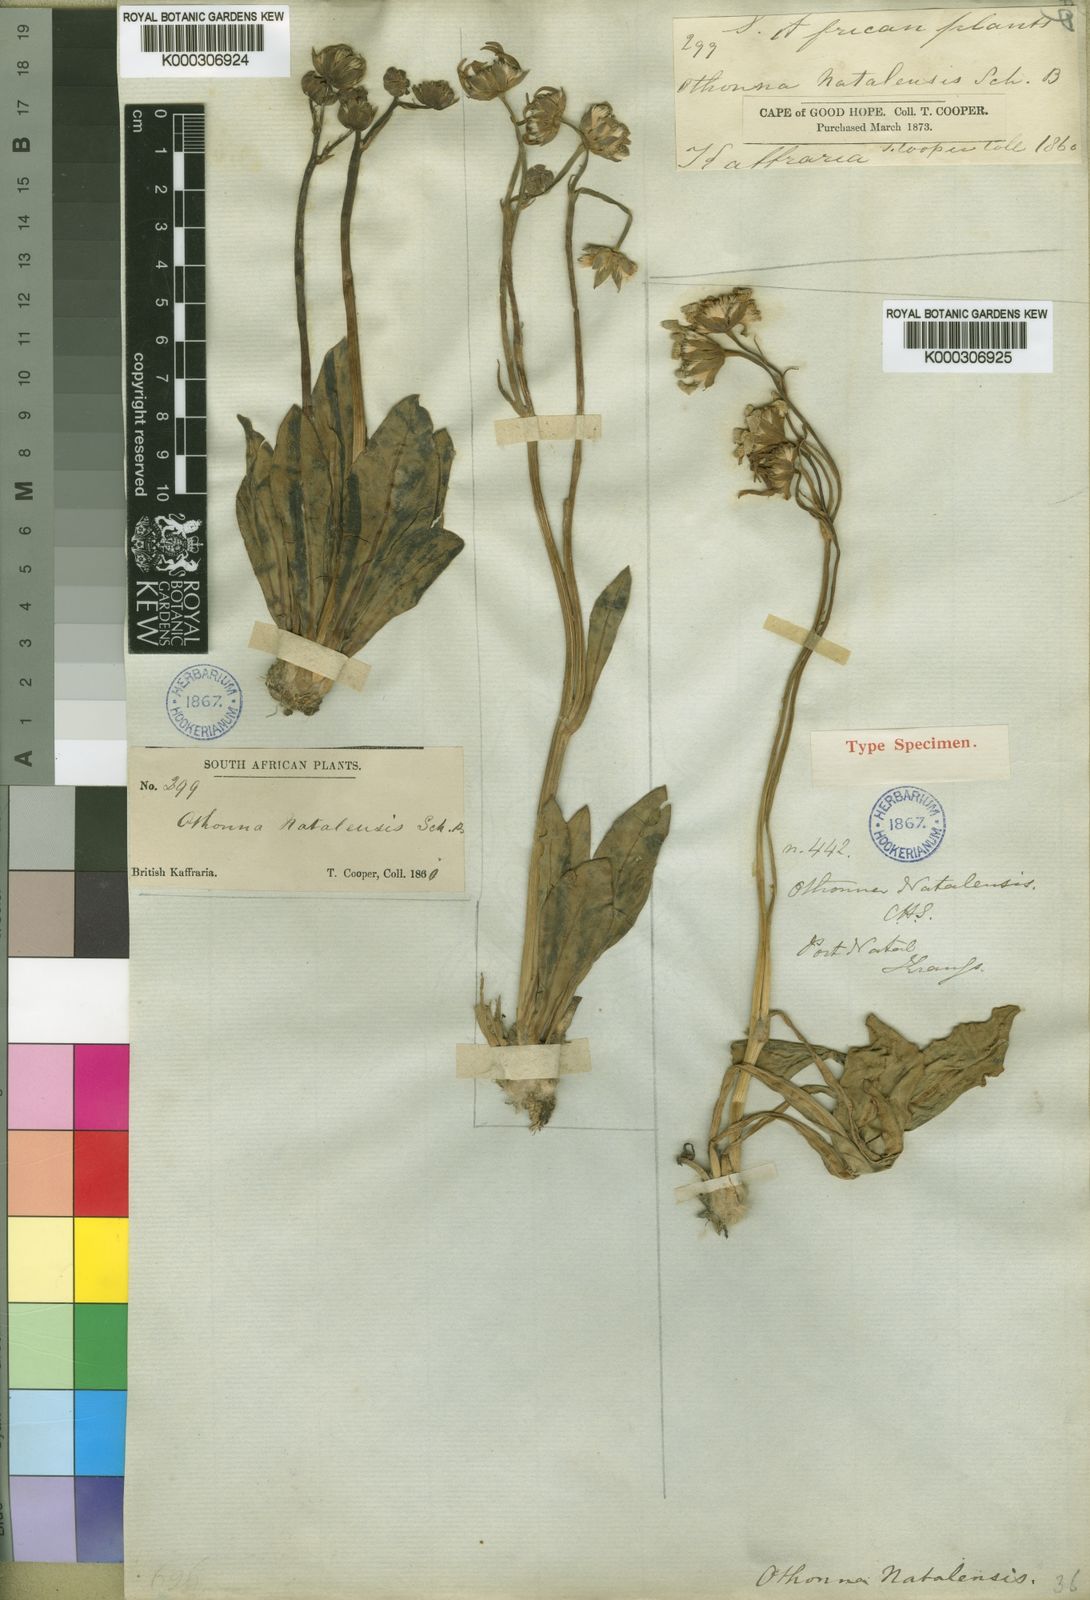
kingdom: Plantae
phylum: Tracheophyta
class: Magnoliopsida
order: Asterales
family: Asteraceae
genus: Othonna
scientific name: Othonna natalensis
